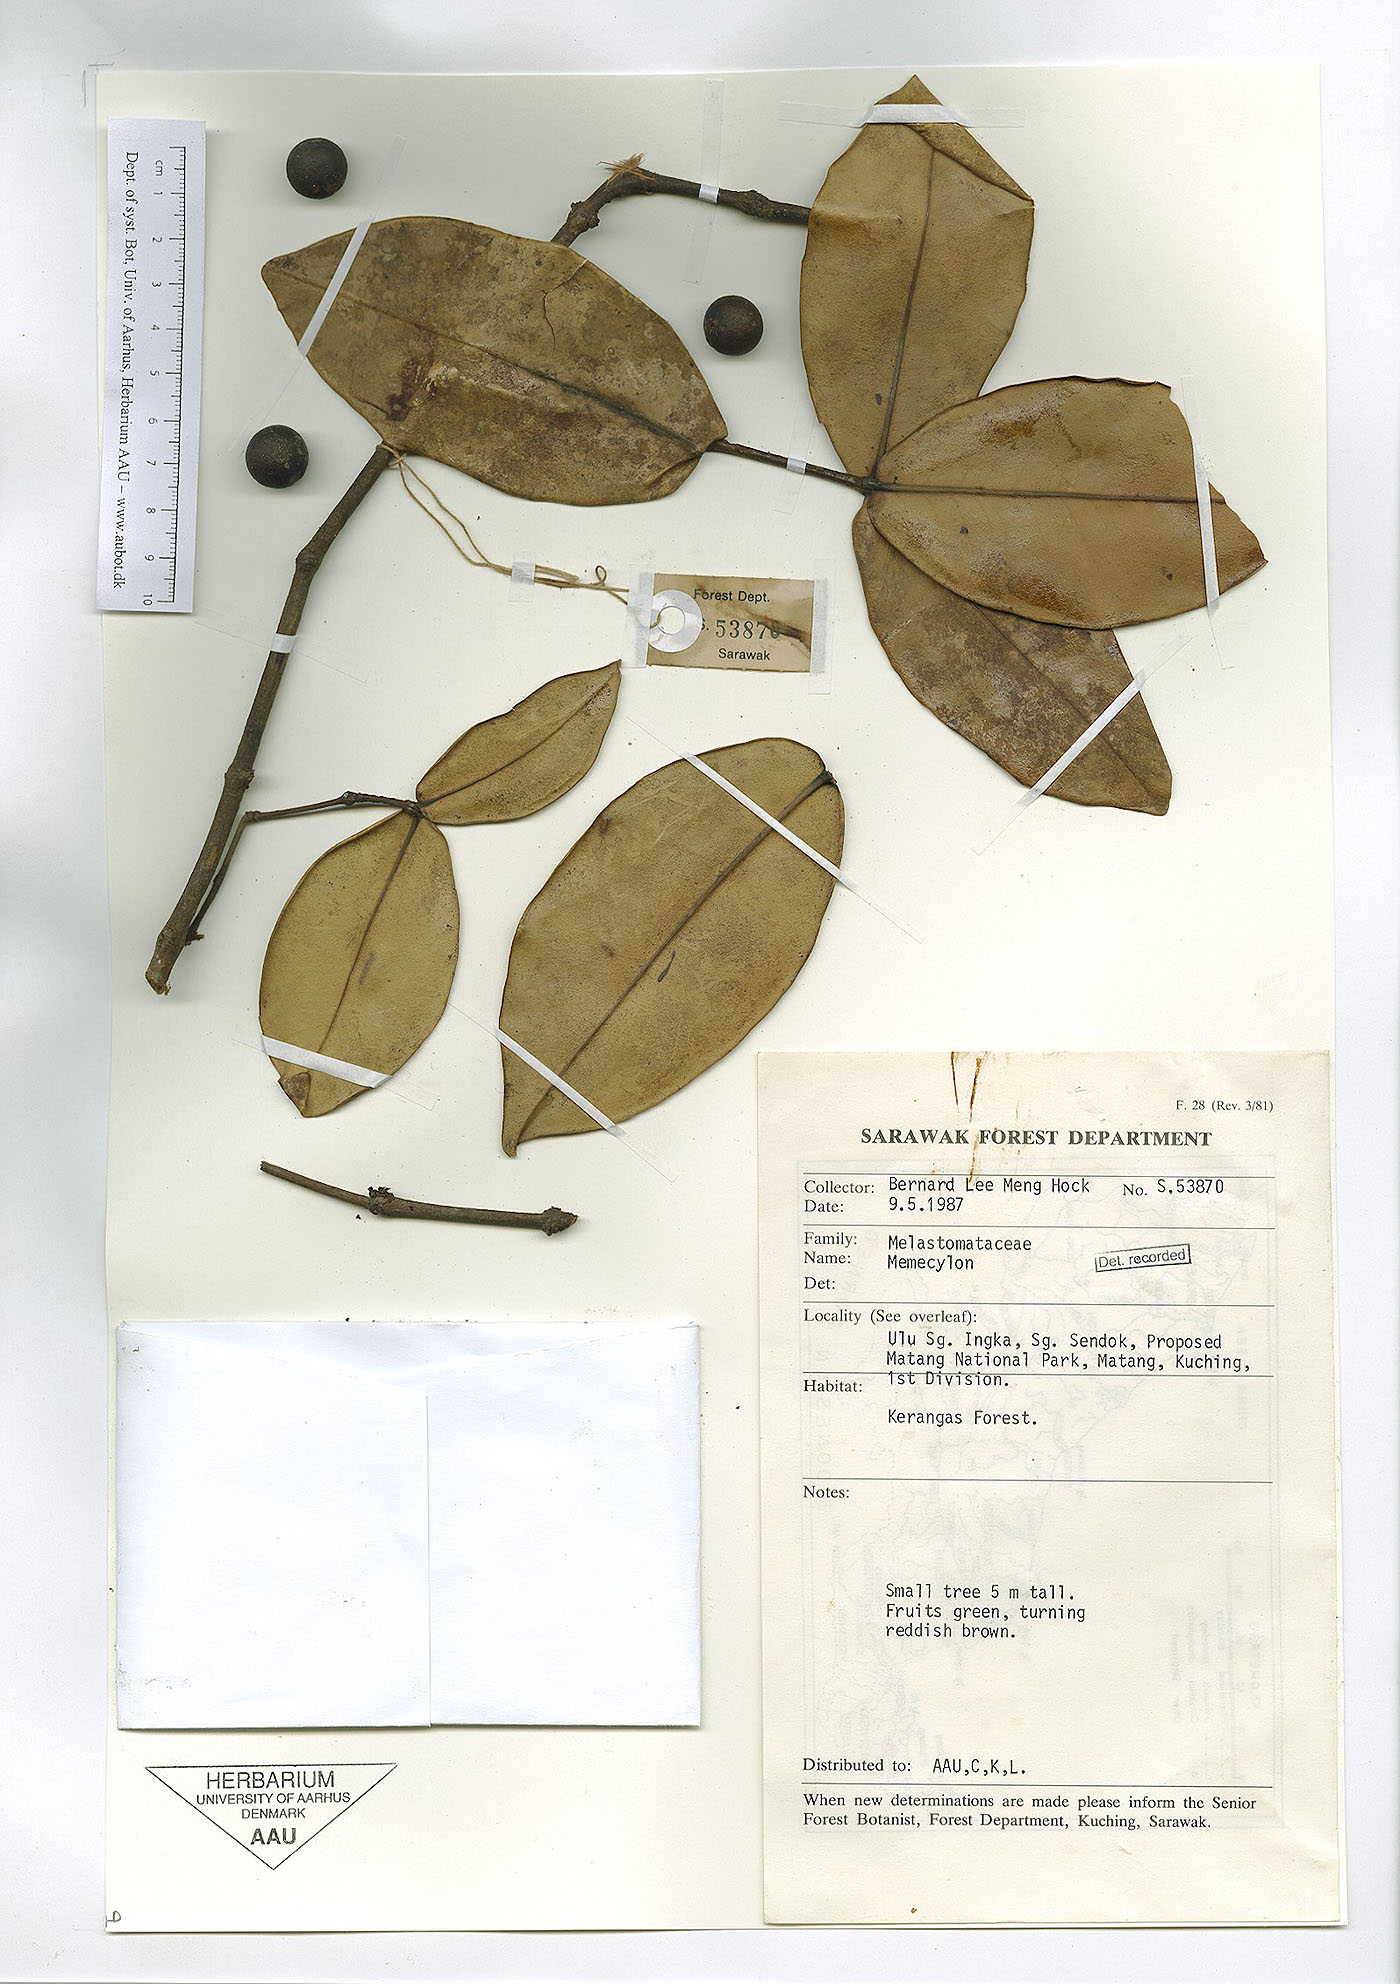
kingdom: Plantae
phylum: Tracheophyta
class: Magnoliopsida
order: Myrtales
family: Melastomataceae
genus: Memecylon
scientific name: Memecylon
